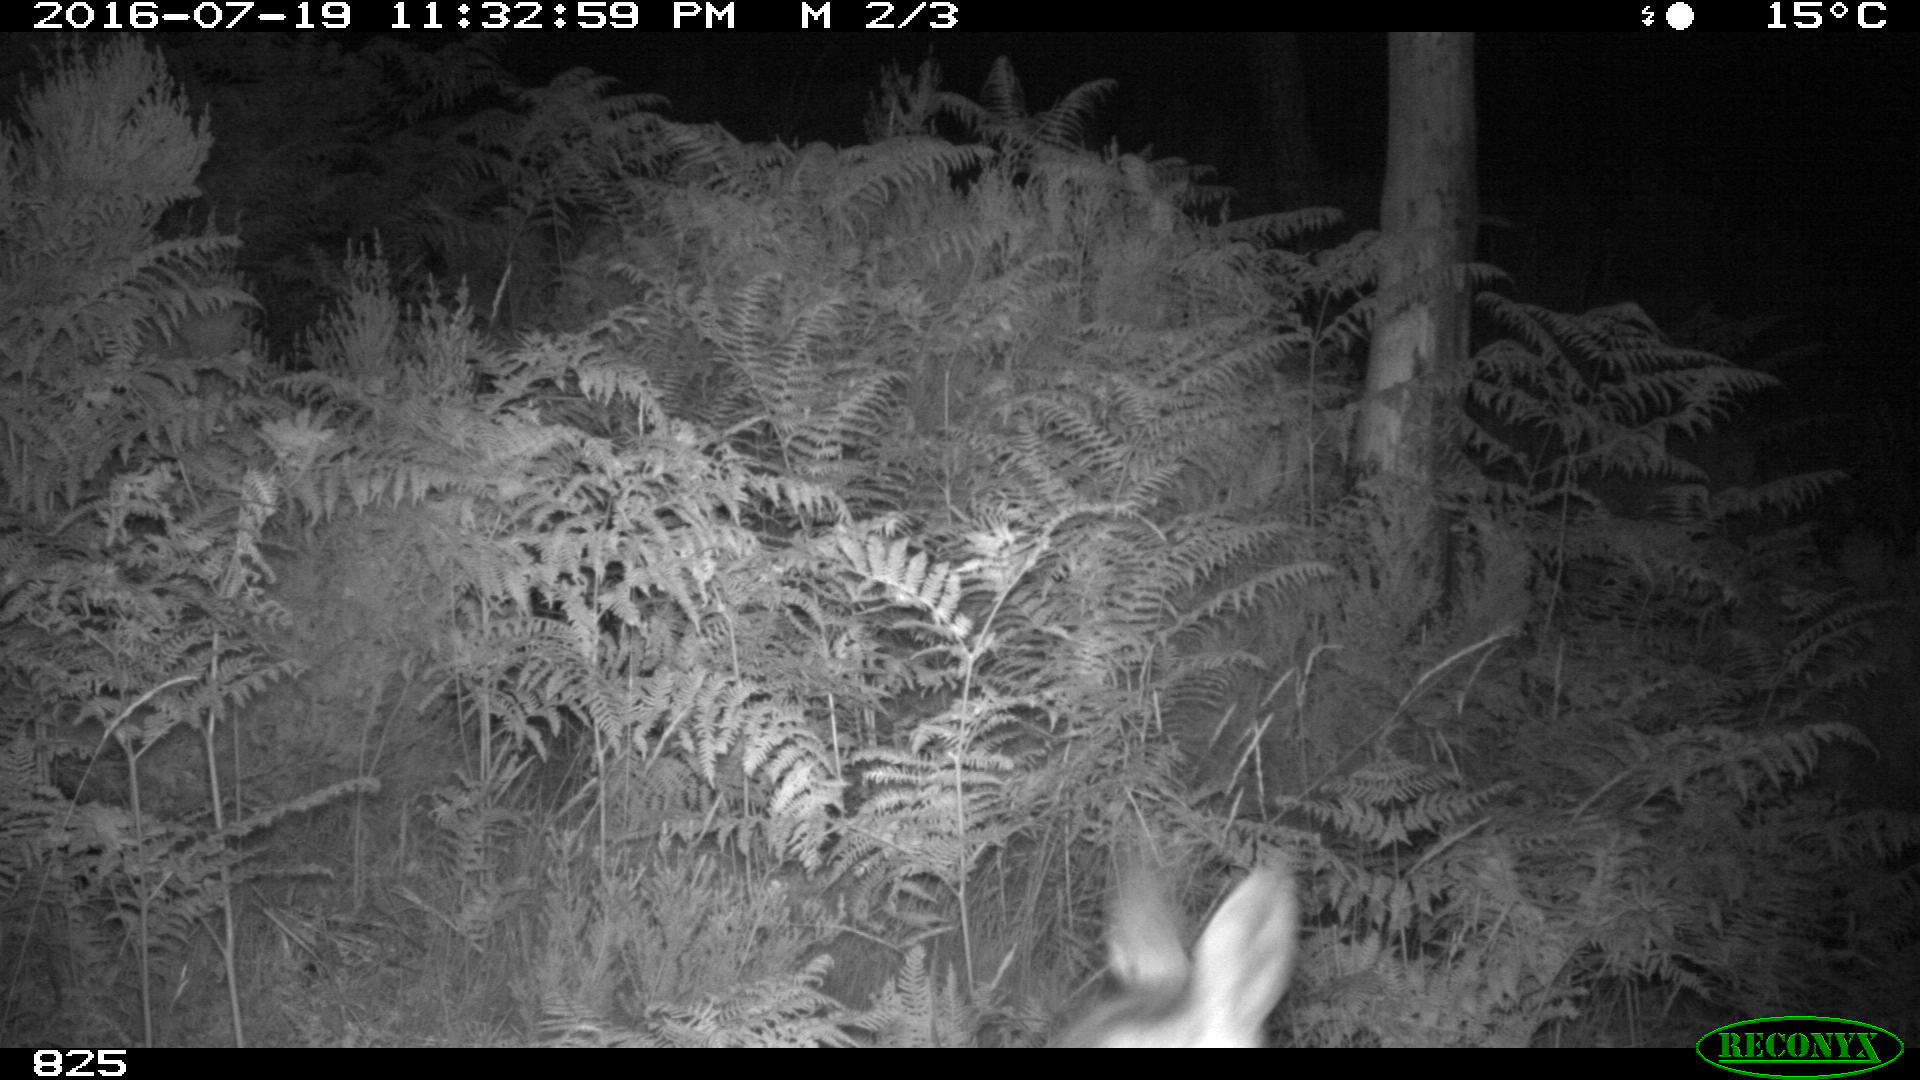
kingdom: Animalia
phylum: Chordata
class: Mammalia
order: Artiodactyla
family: Cervidae
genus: Capreolus
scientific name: Capreolus capreolus
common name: Western roe deer
